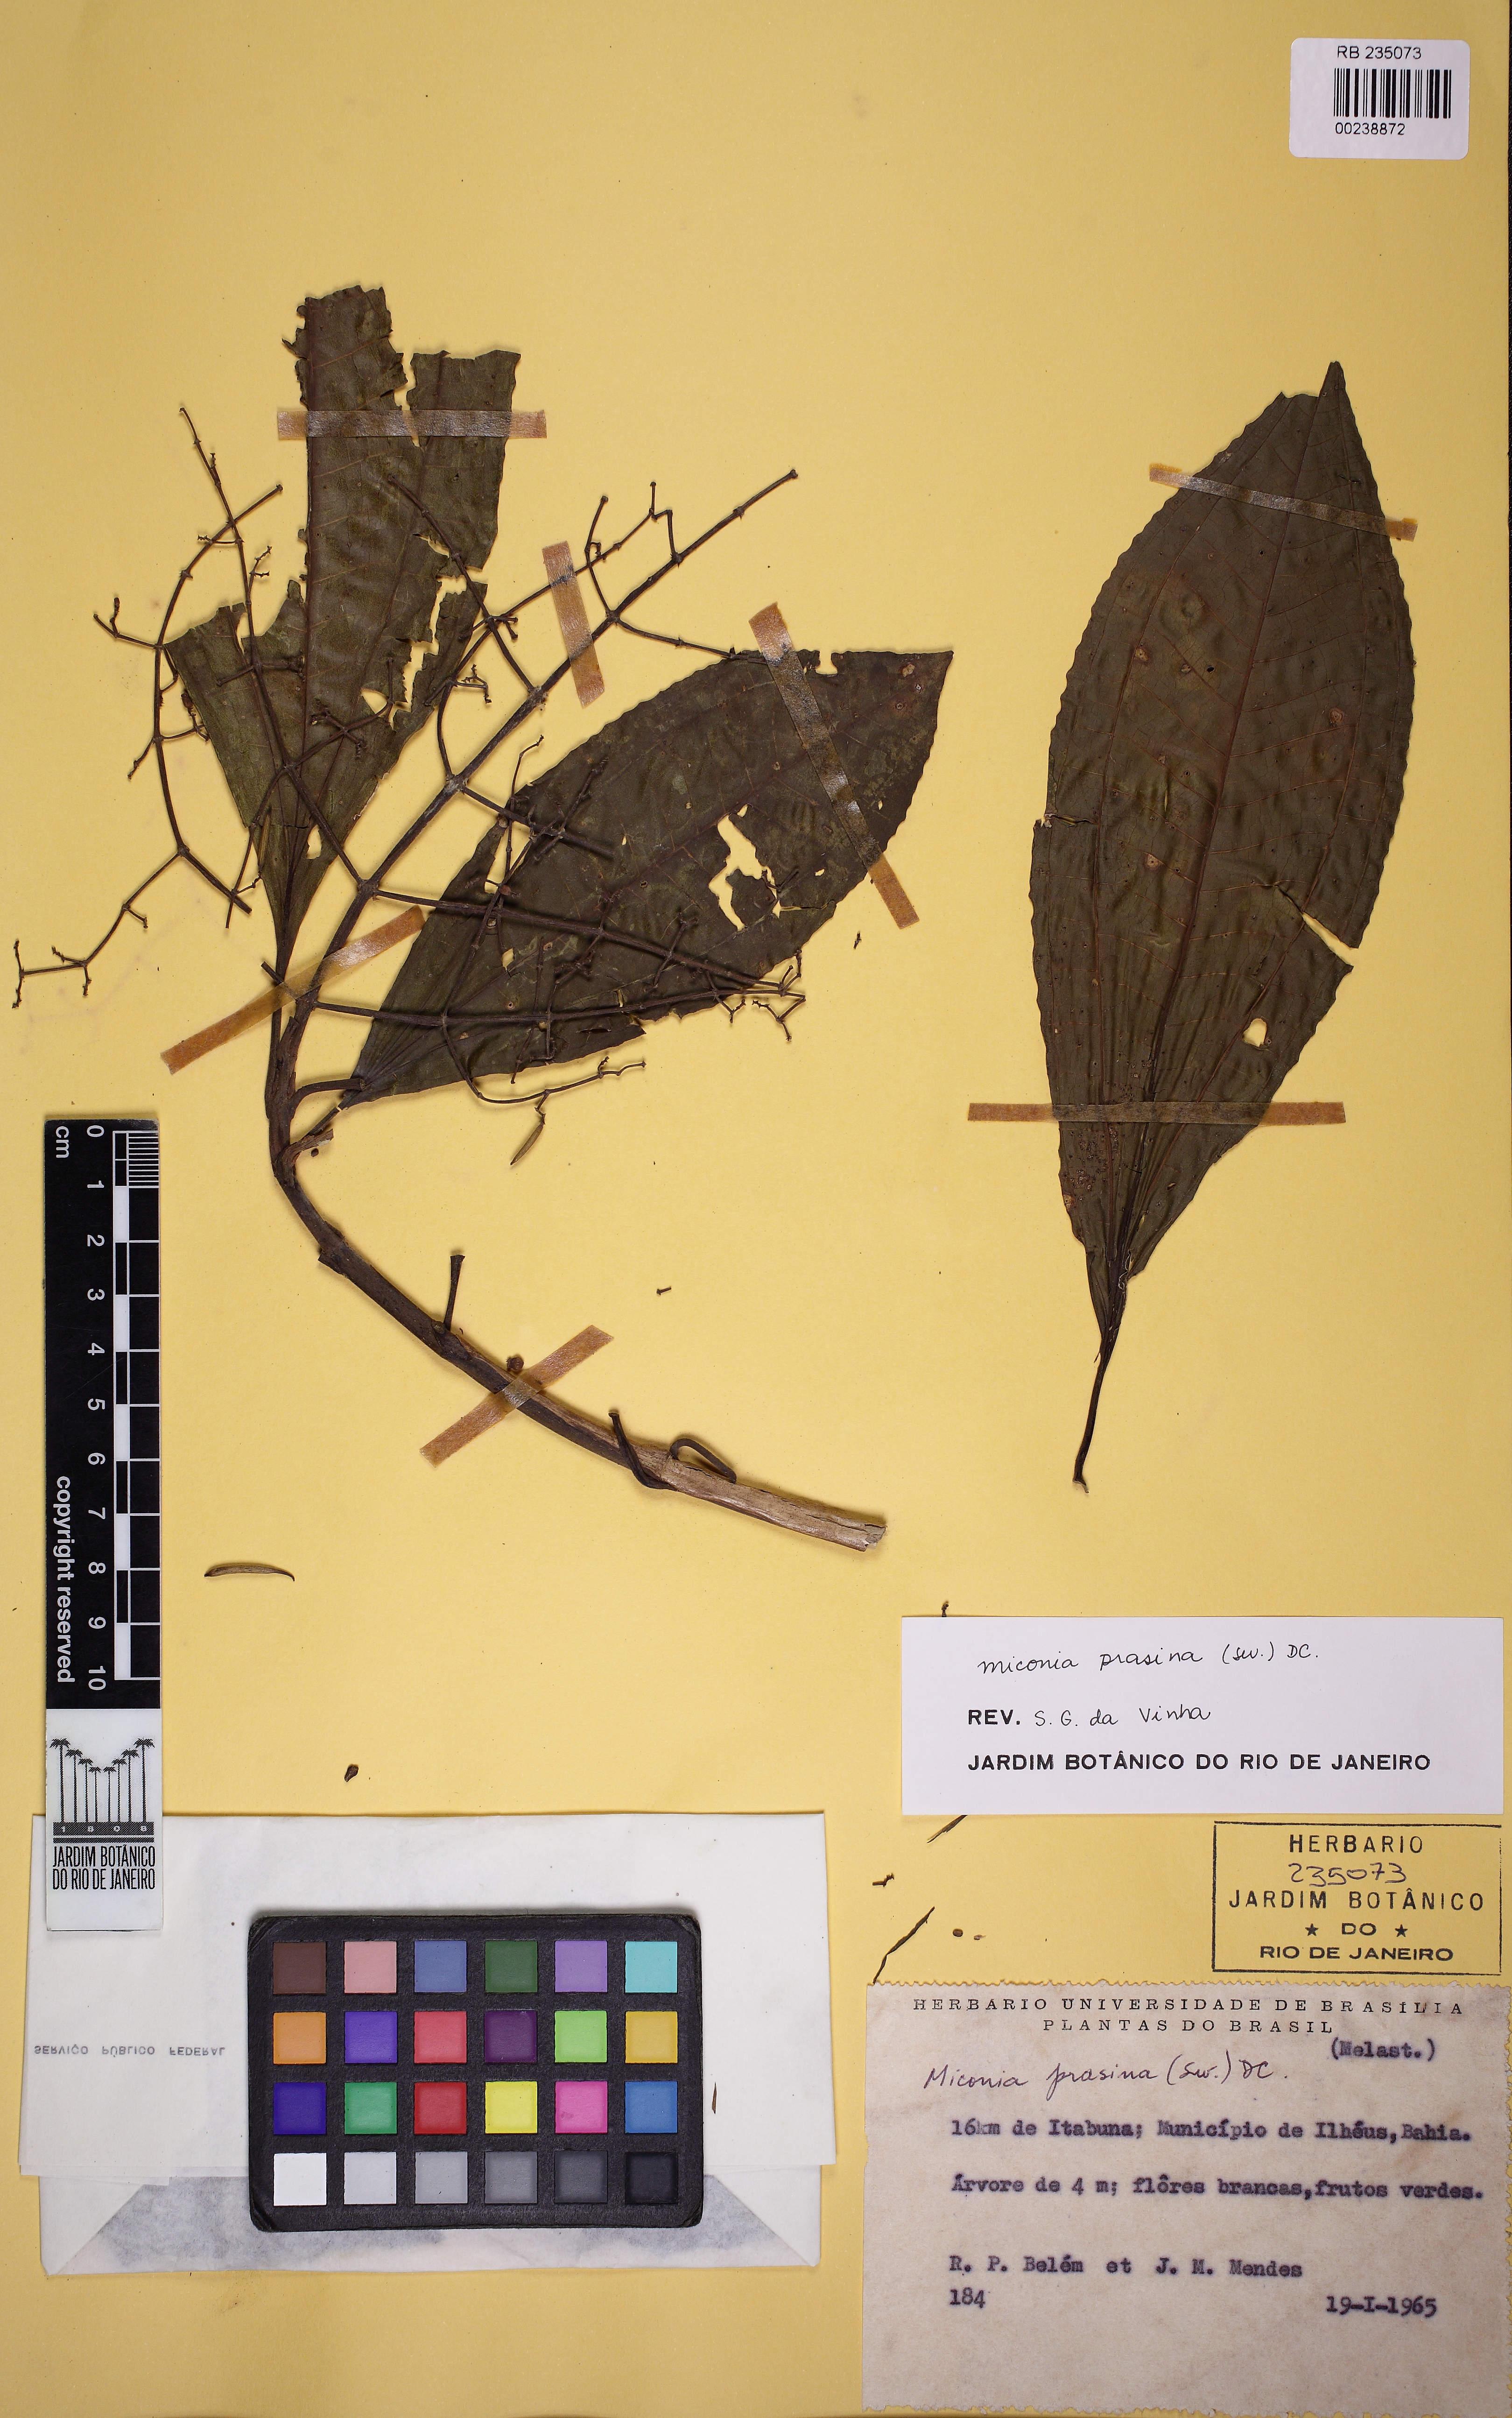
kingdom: Plantae
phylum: Tracheophyta
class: Magnoliopsida
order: Myrtales
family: Melastomataceae
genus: Miconia
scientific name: Miconia prasina
